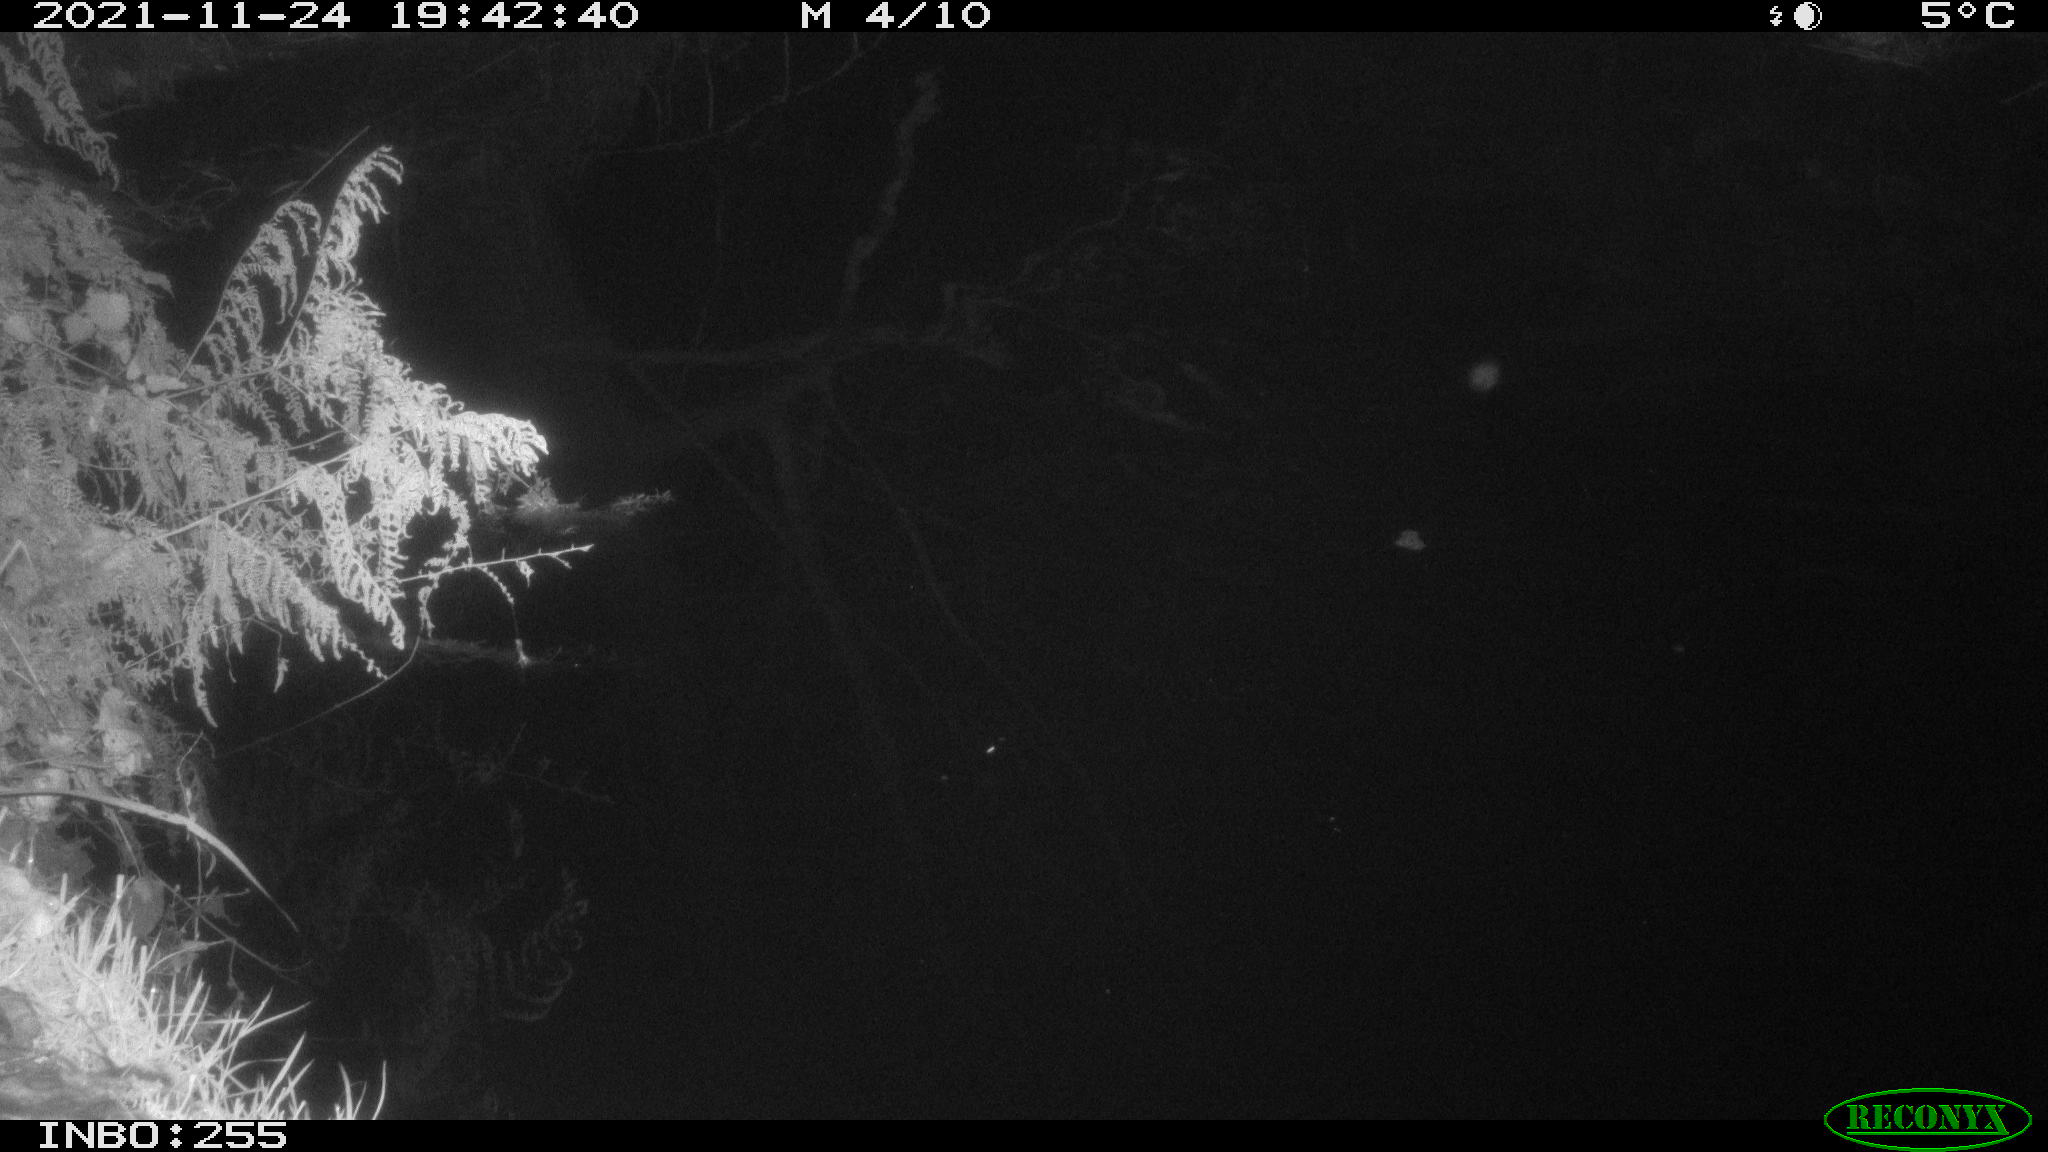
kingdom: Animalia
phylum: Chordata
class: Aves
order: Anseriformes
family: Anatidae
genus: Anas
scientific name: Anas platyrhynchos
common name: Mallard
